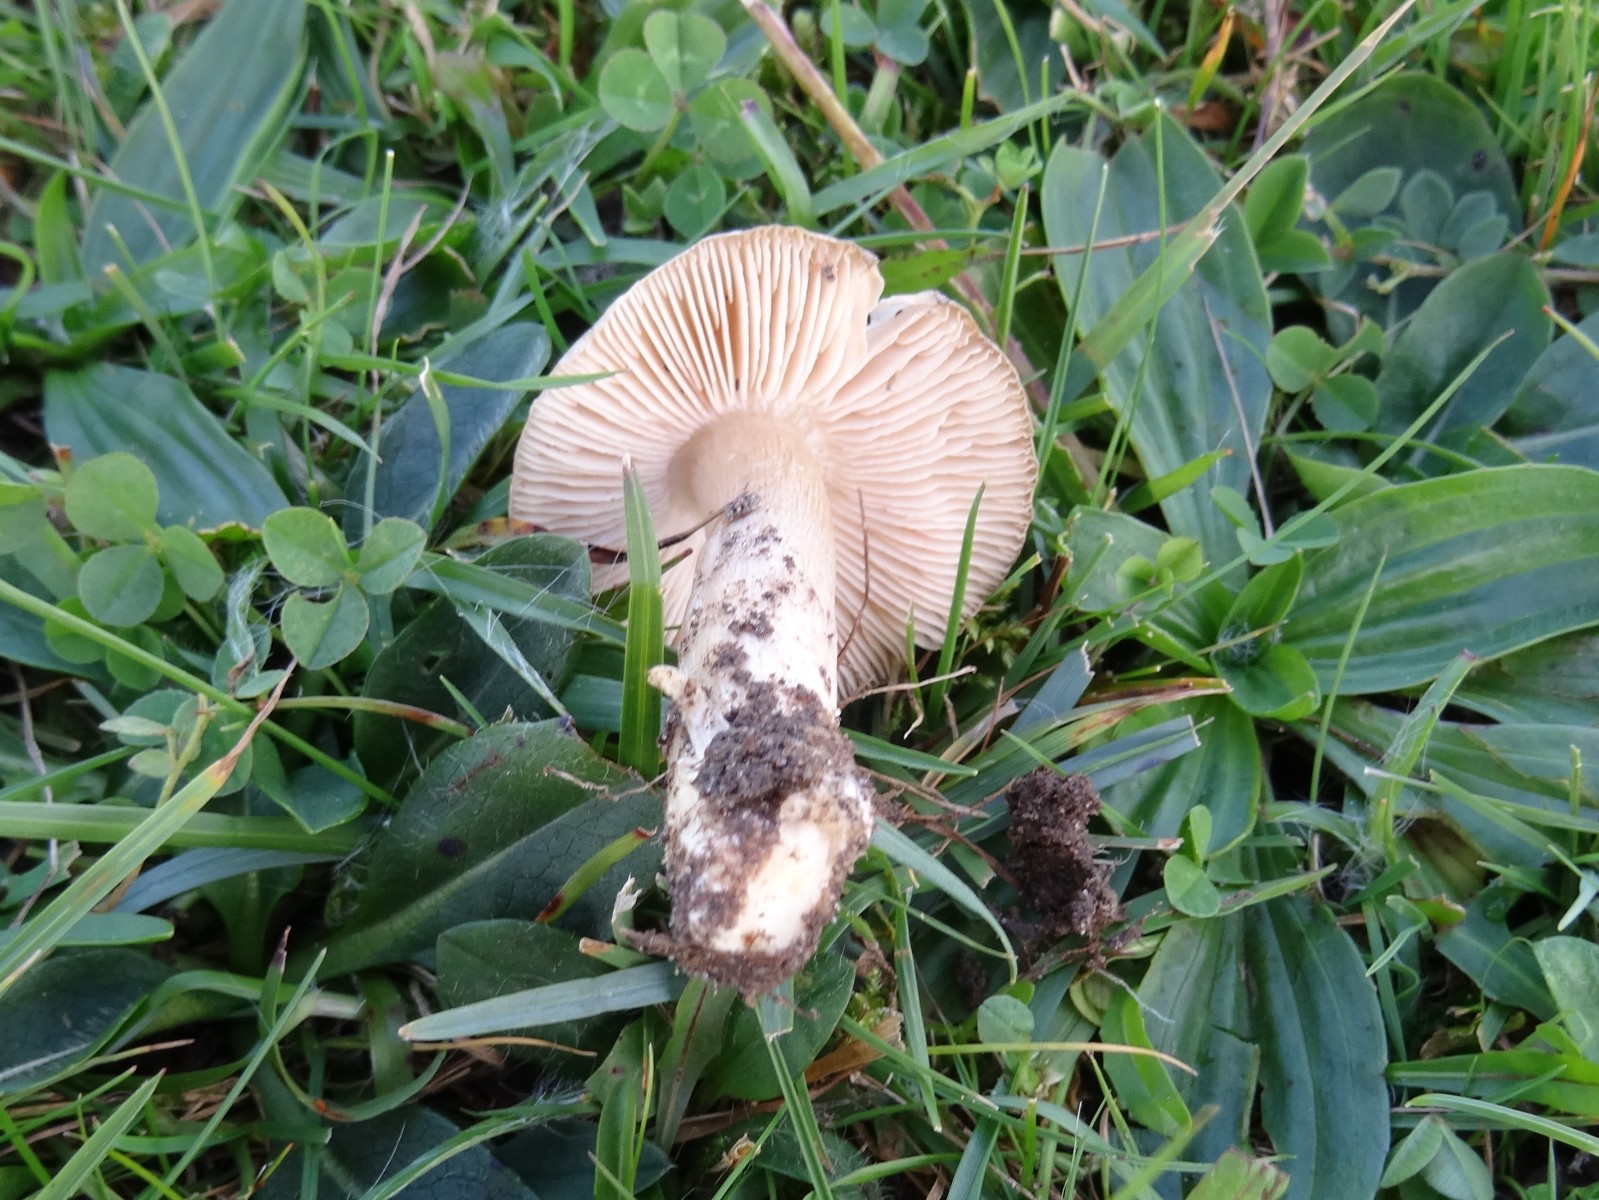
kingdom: Fungi
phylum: Basidiomycota
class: Agaricomycetes
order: Agaricales
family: Entolomataceae
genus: Entoloma
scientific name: Entoloma prunuloides
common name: mel-rødblad
